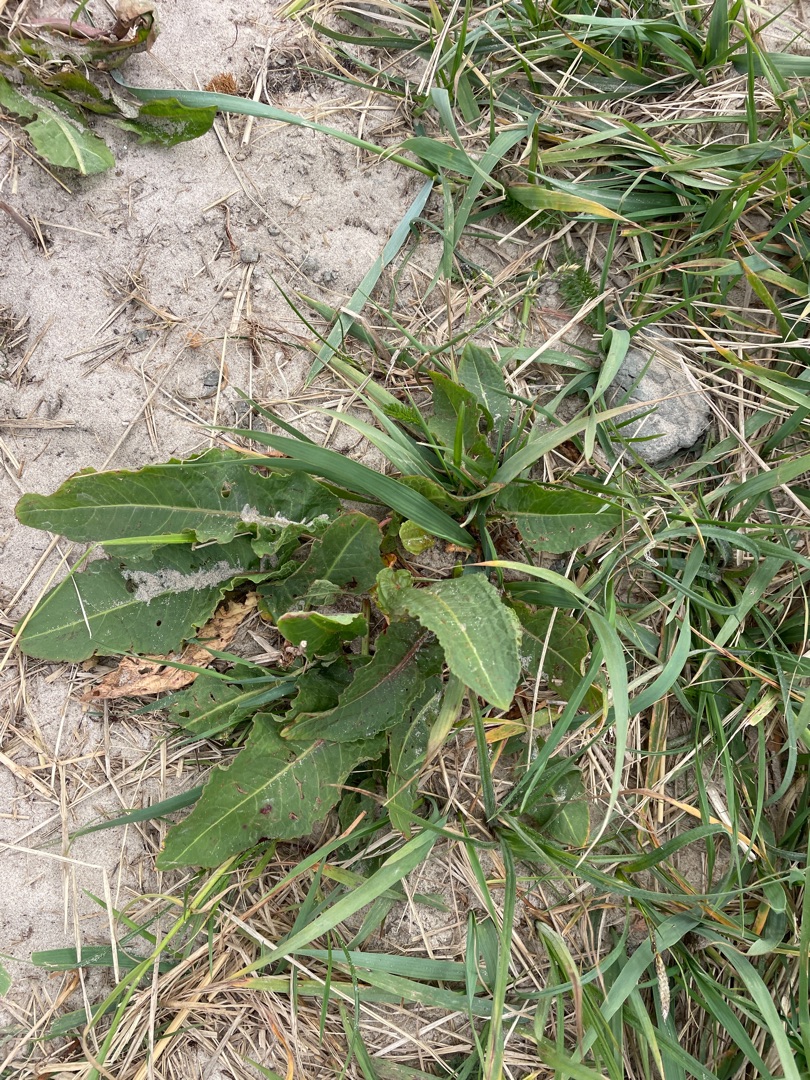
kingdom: Plantae
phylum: Tracheophyta
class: Magnoliopsida
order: Caryophyllales
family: Polygonaceae
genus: Rumex
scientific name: Rumex crispus
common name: Kruset skræppe
